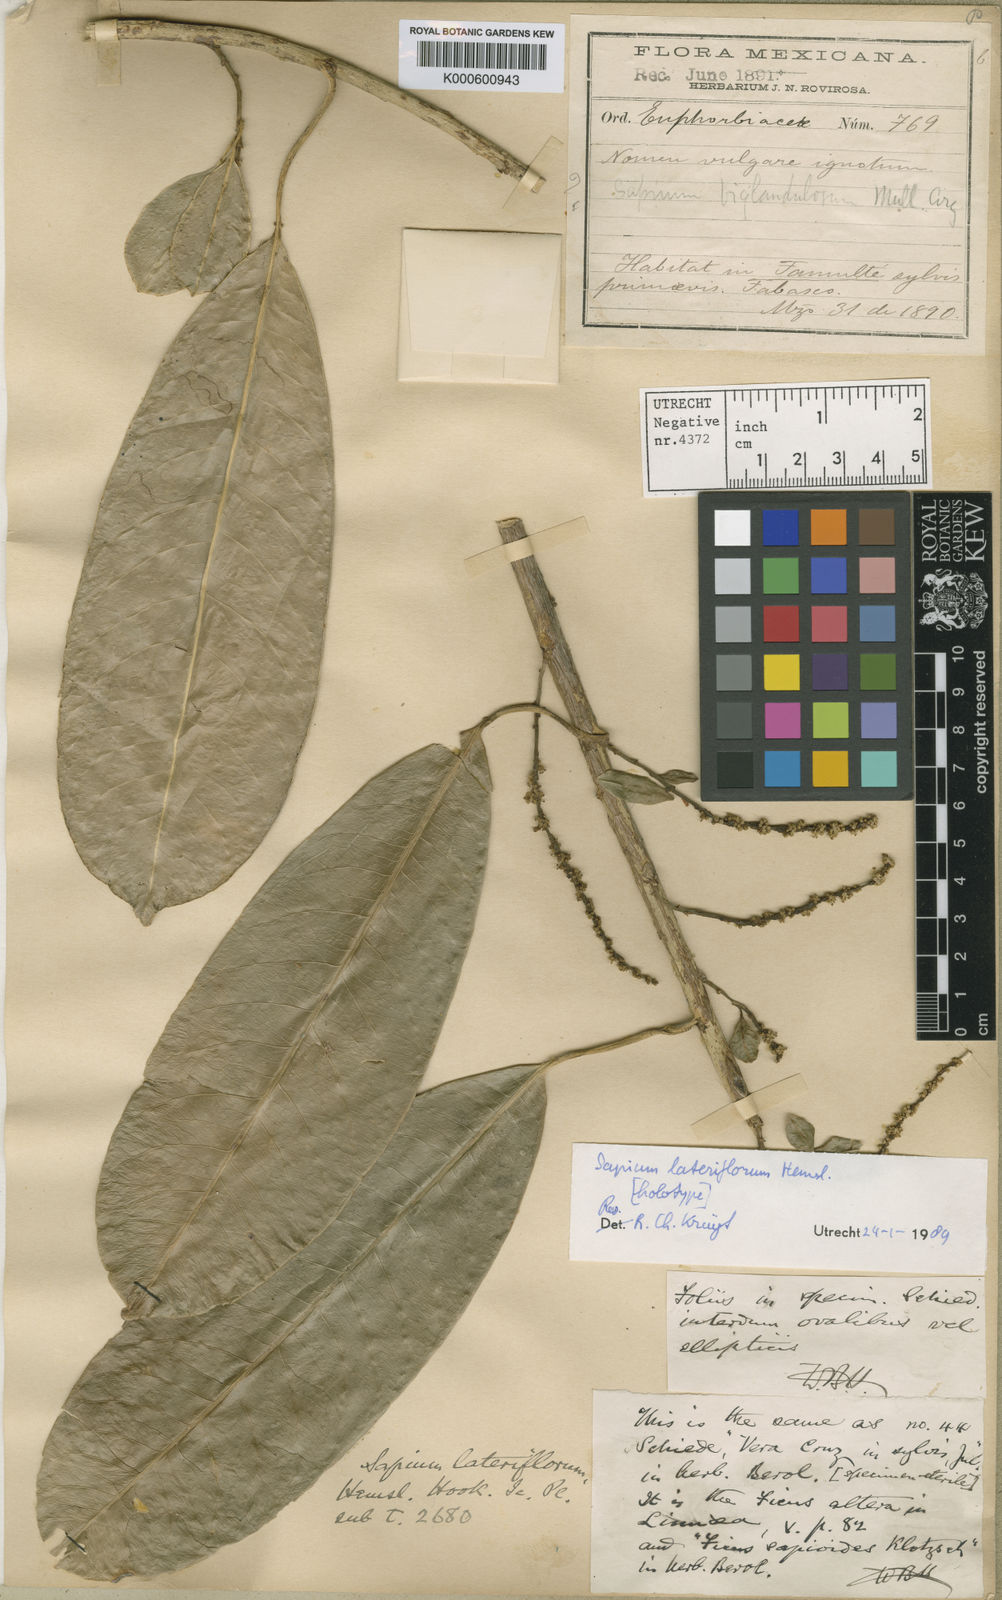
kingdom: Plantae
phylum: Tracheophyta
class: Magnoliopsida
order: Malpighiales
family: Euphorbiaceae
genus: Sapium
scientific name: Sapium lateriflorum
